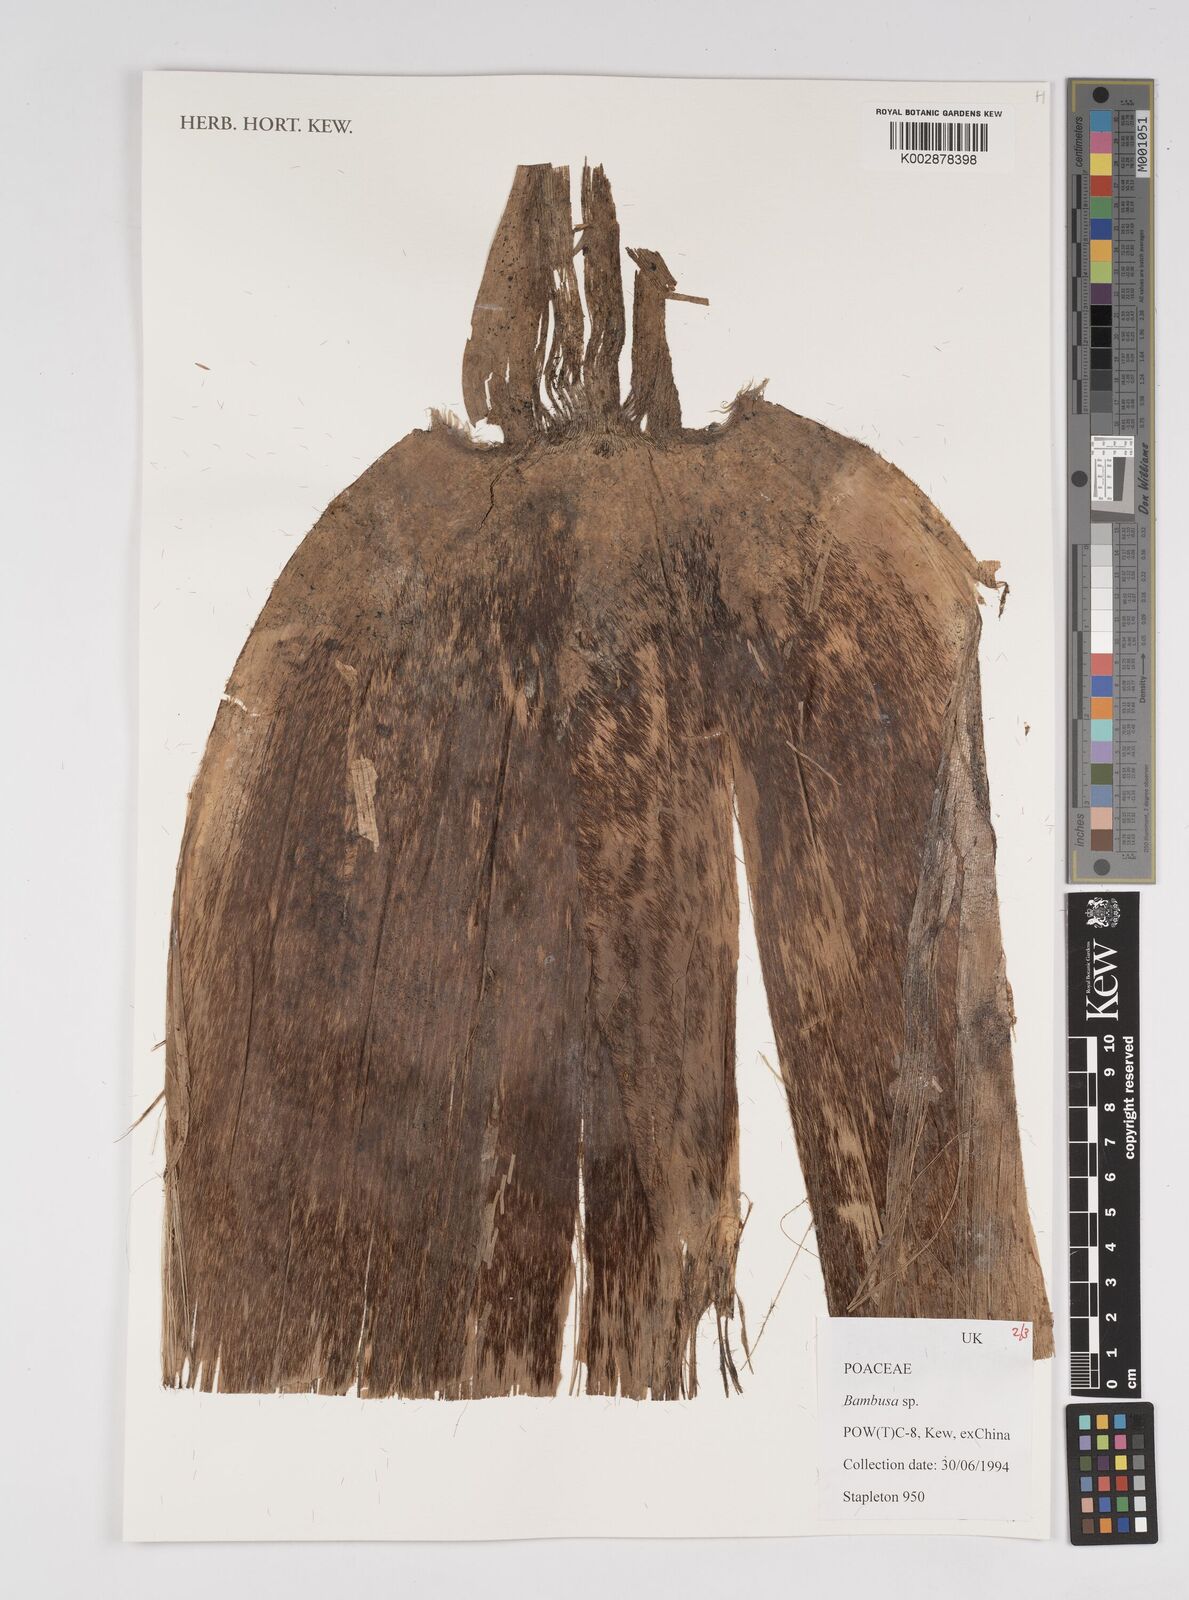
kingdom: Plantae
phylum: Tracheophyta
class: Liliopsida
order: Poales
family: Poaceae
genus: Bambusa
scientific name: Bambusa
